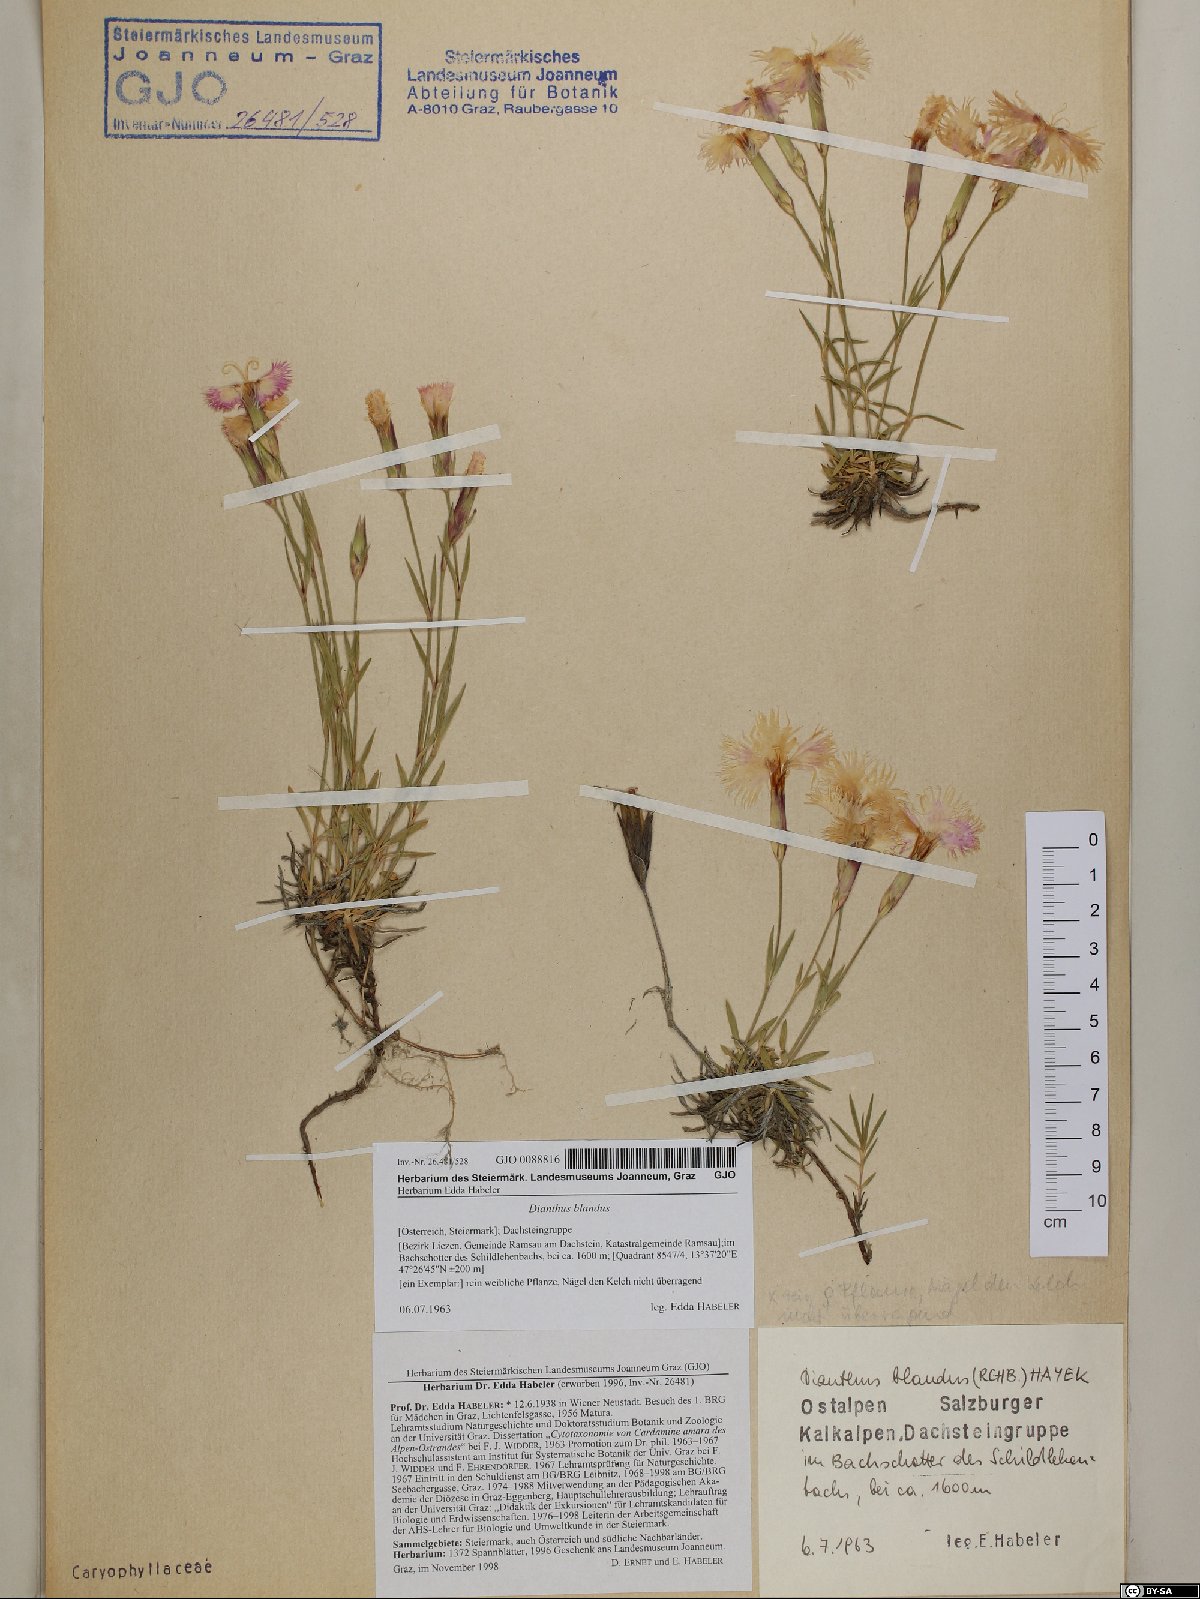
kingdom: Plantae
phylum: Tracheophyta
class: Magnoliopsida
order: Caryophyllales
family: Caryophyllaceae
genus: Dianthus
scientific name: Dianthus plumarius
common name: Pink
